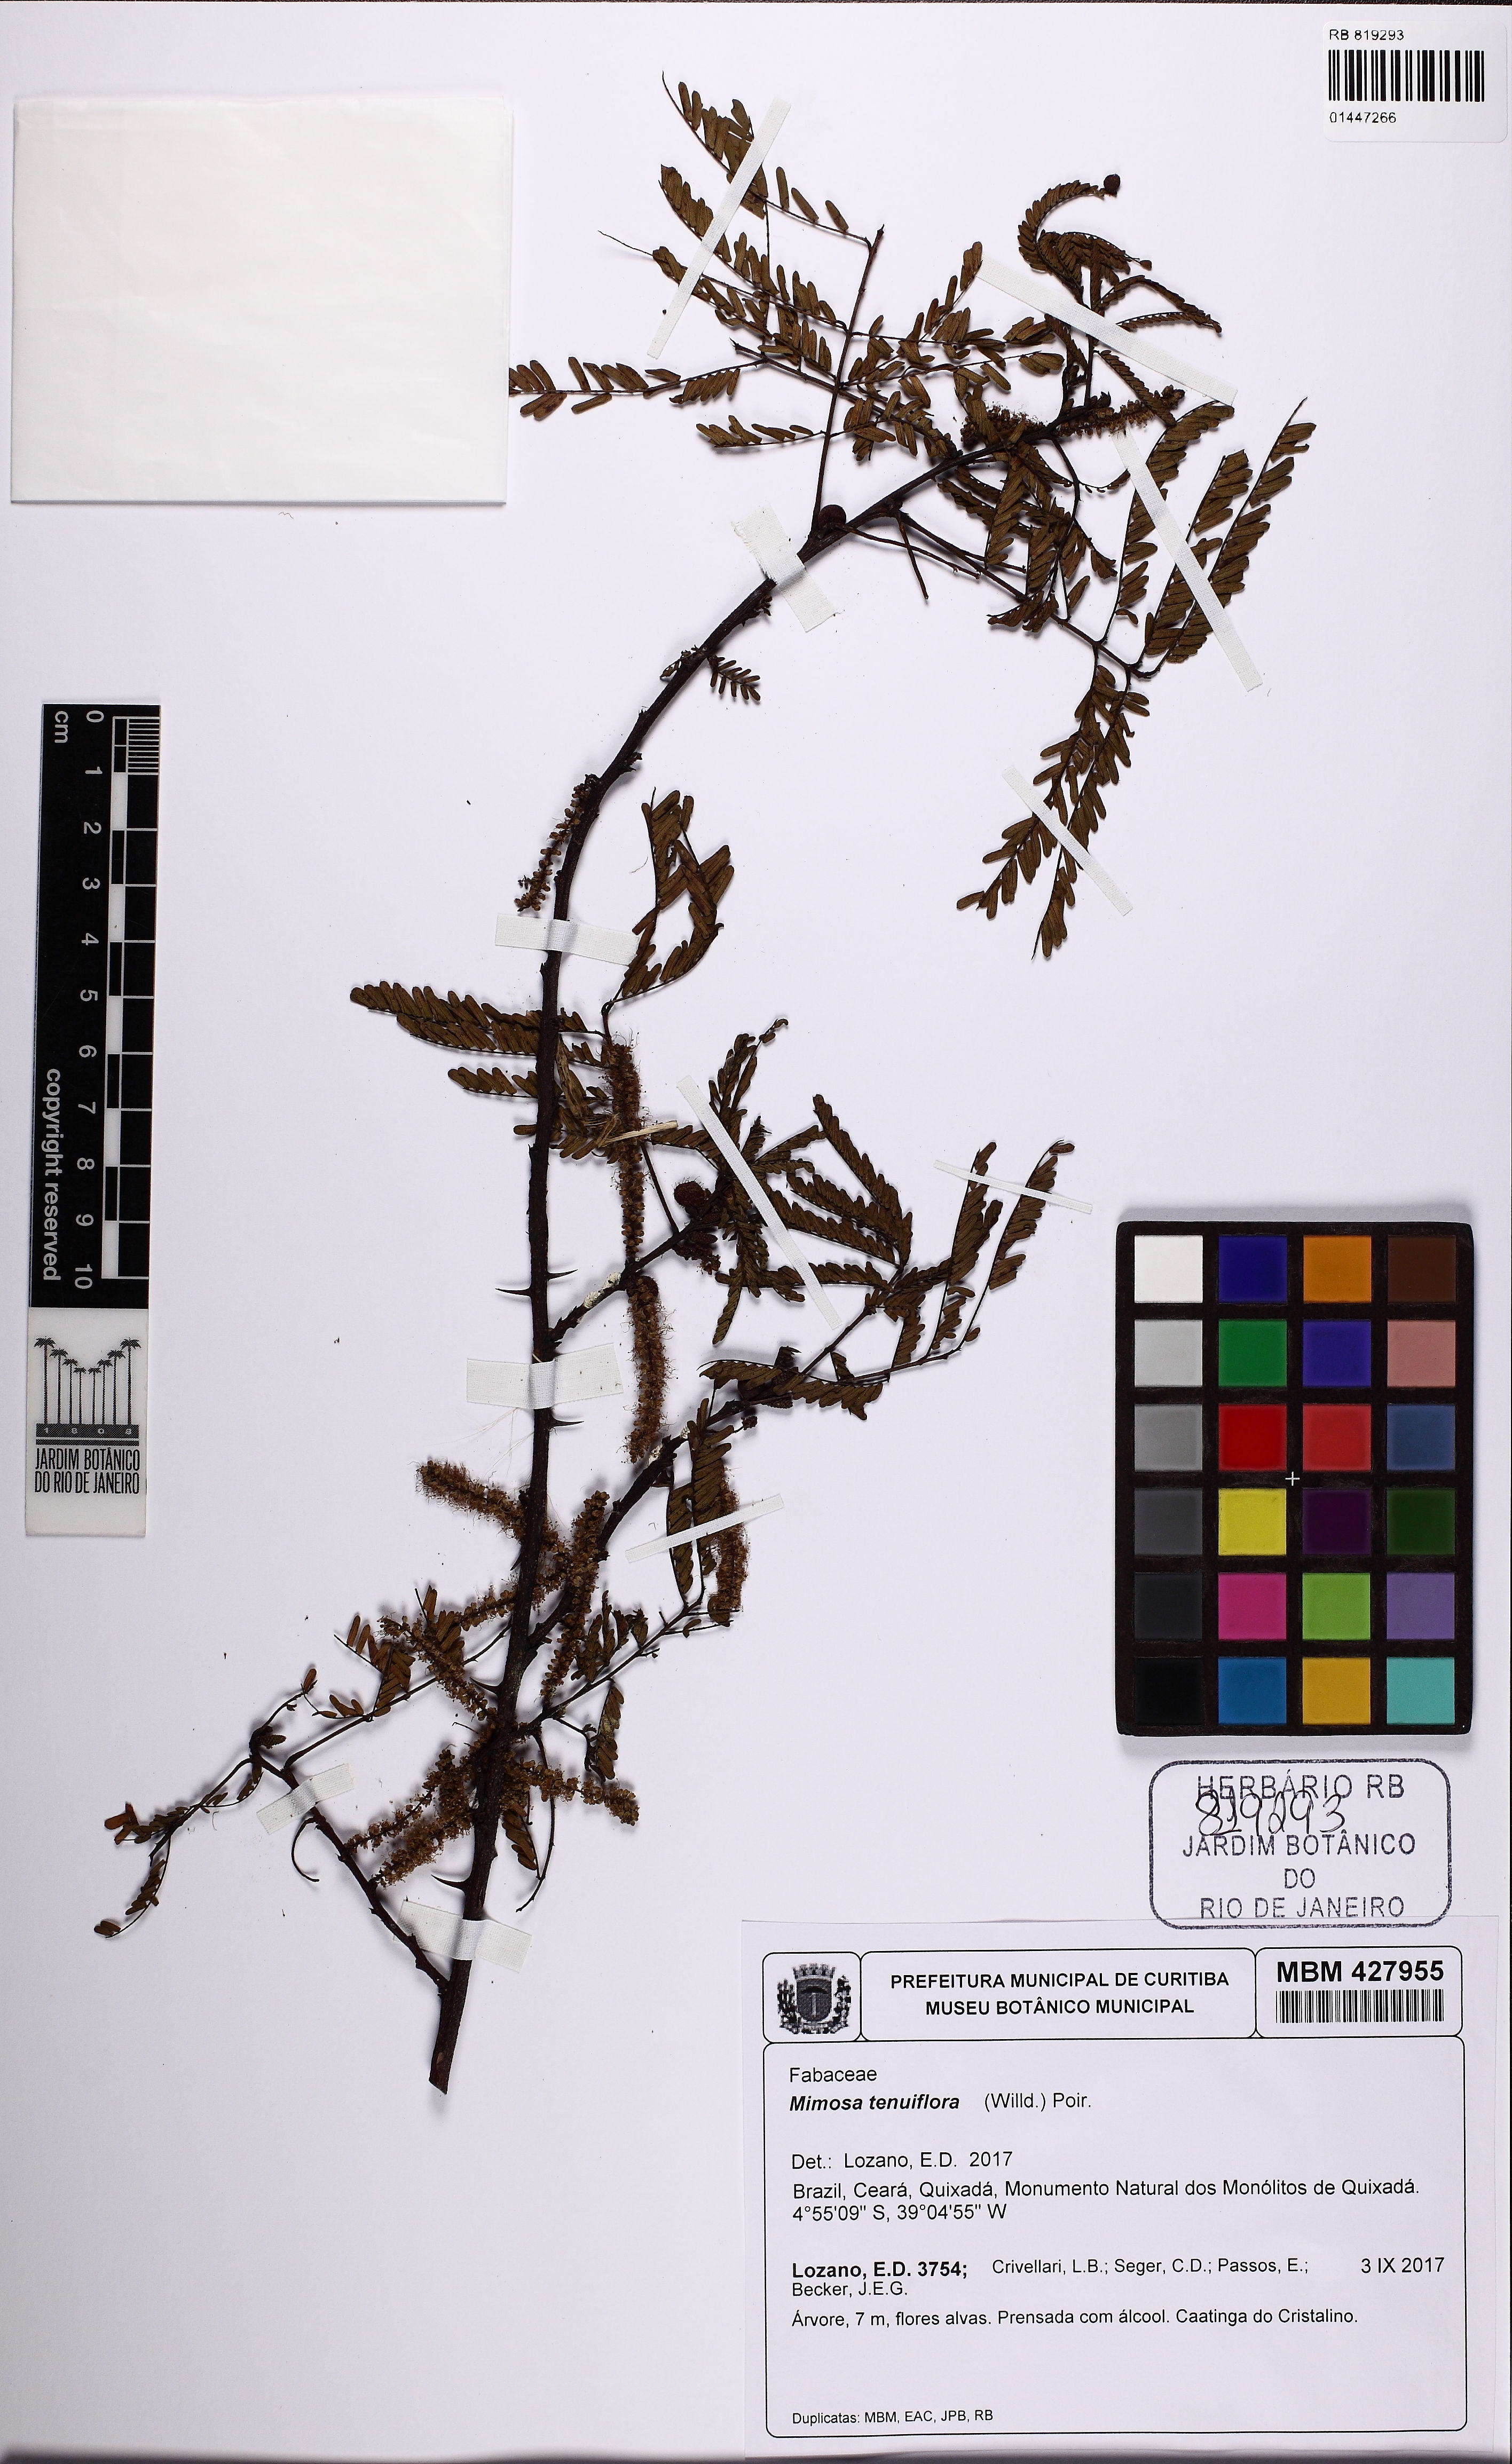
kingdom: Plantae
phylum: Tracheophyta
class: Magnoliopsida
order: Fabales
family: Fabaceae
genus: Mimosa
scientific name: Mimosa tenuiflora
